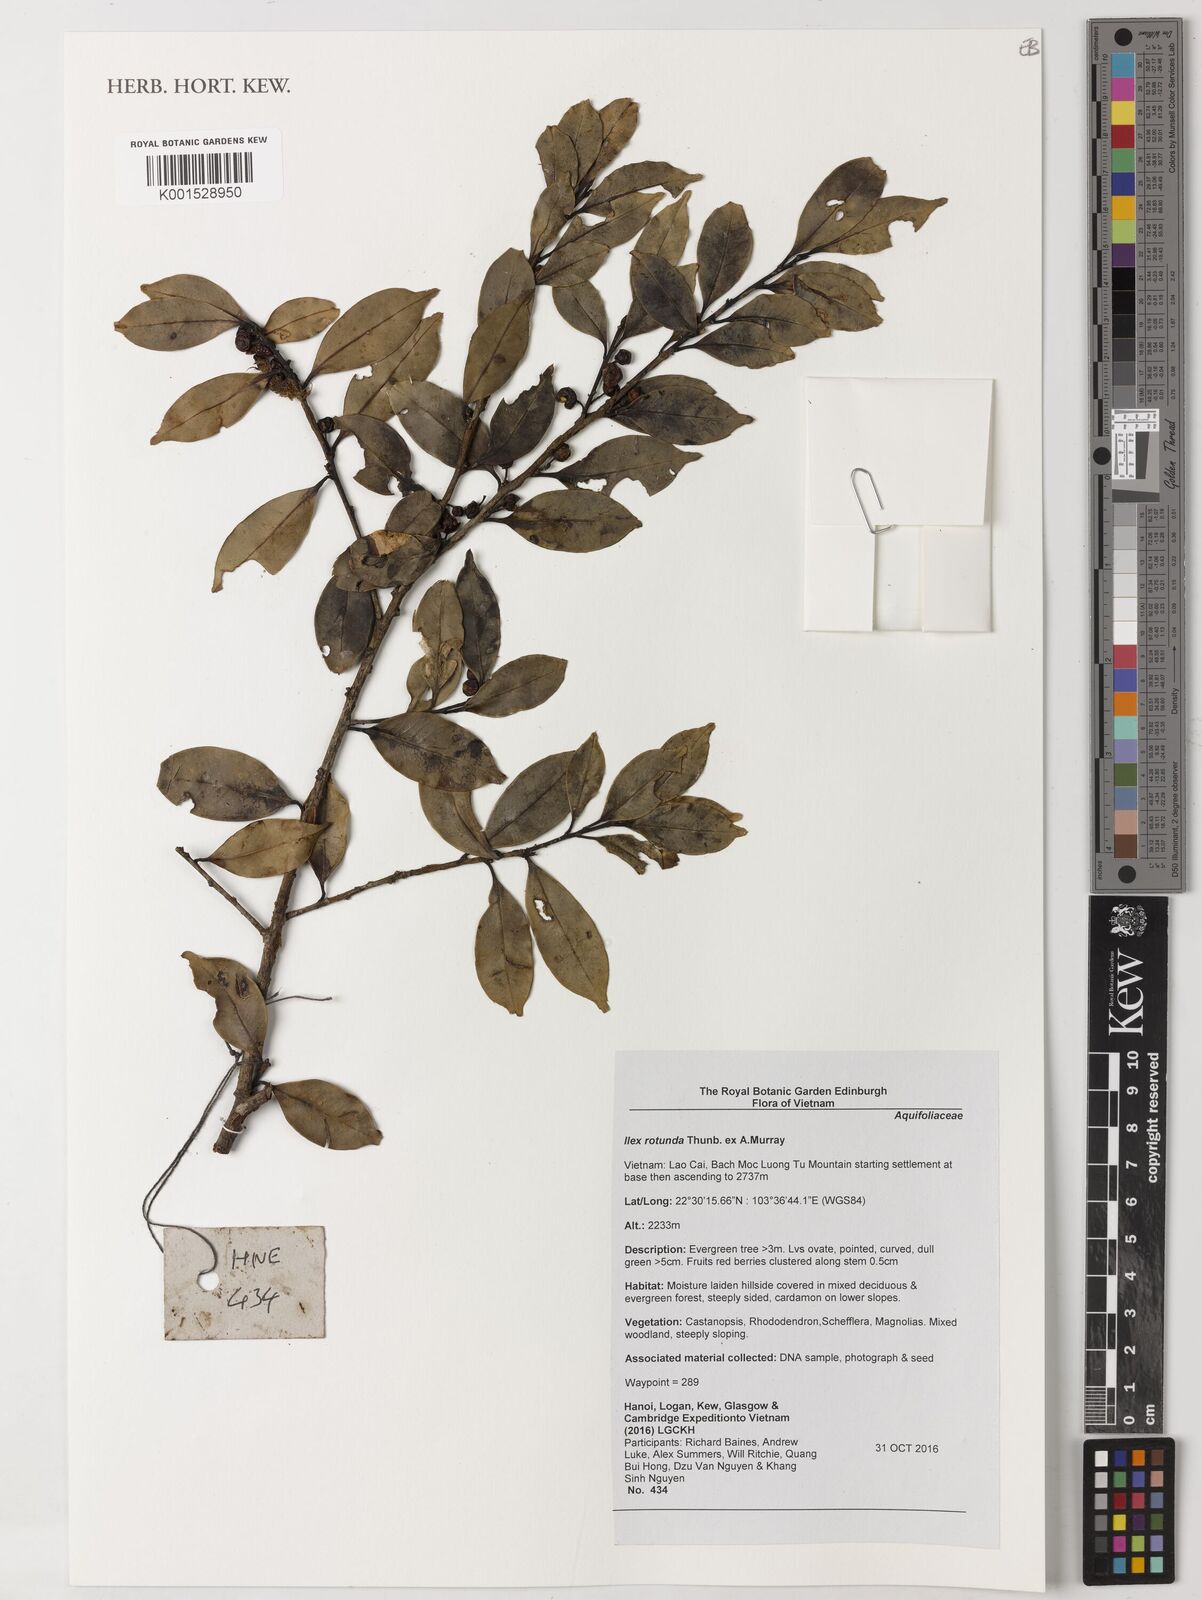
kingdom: Plantae
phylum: Tracheophyta
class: Magnoliopsida
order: Aquifoliales
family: Aquifoliaceae
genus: Ilex
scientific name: Ilex rotunda
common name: Kurogane holly
